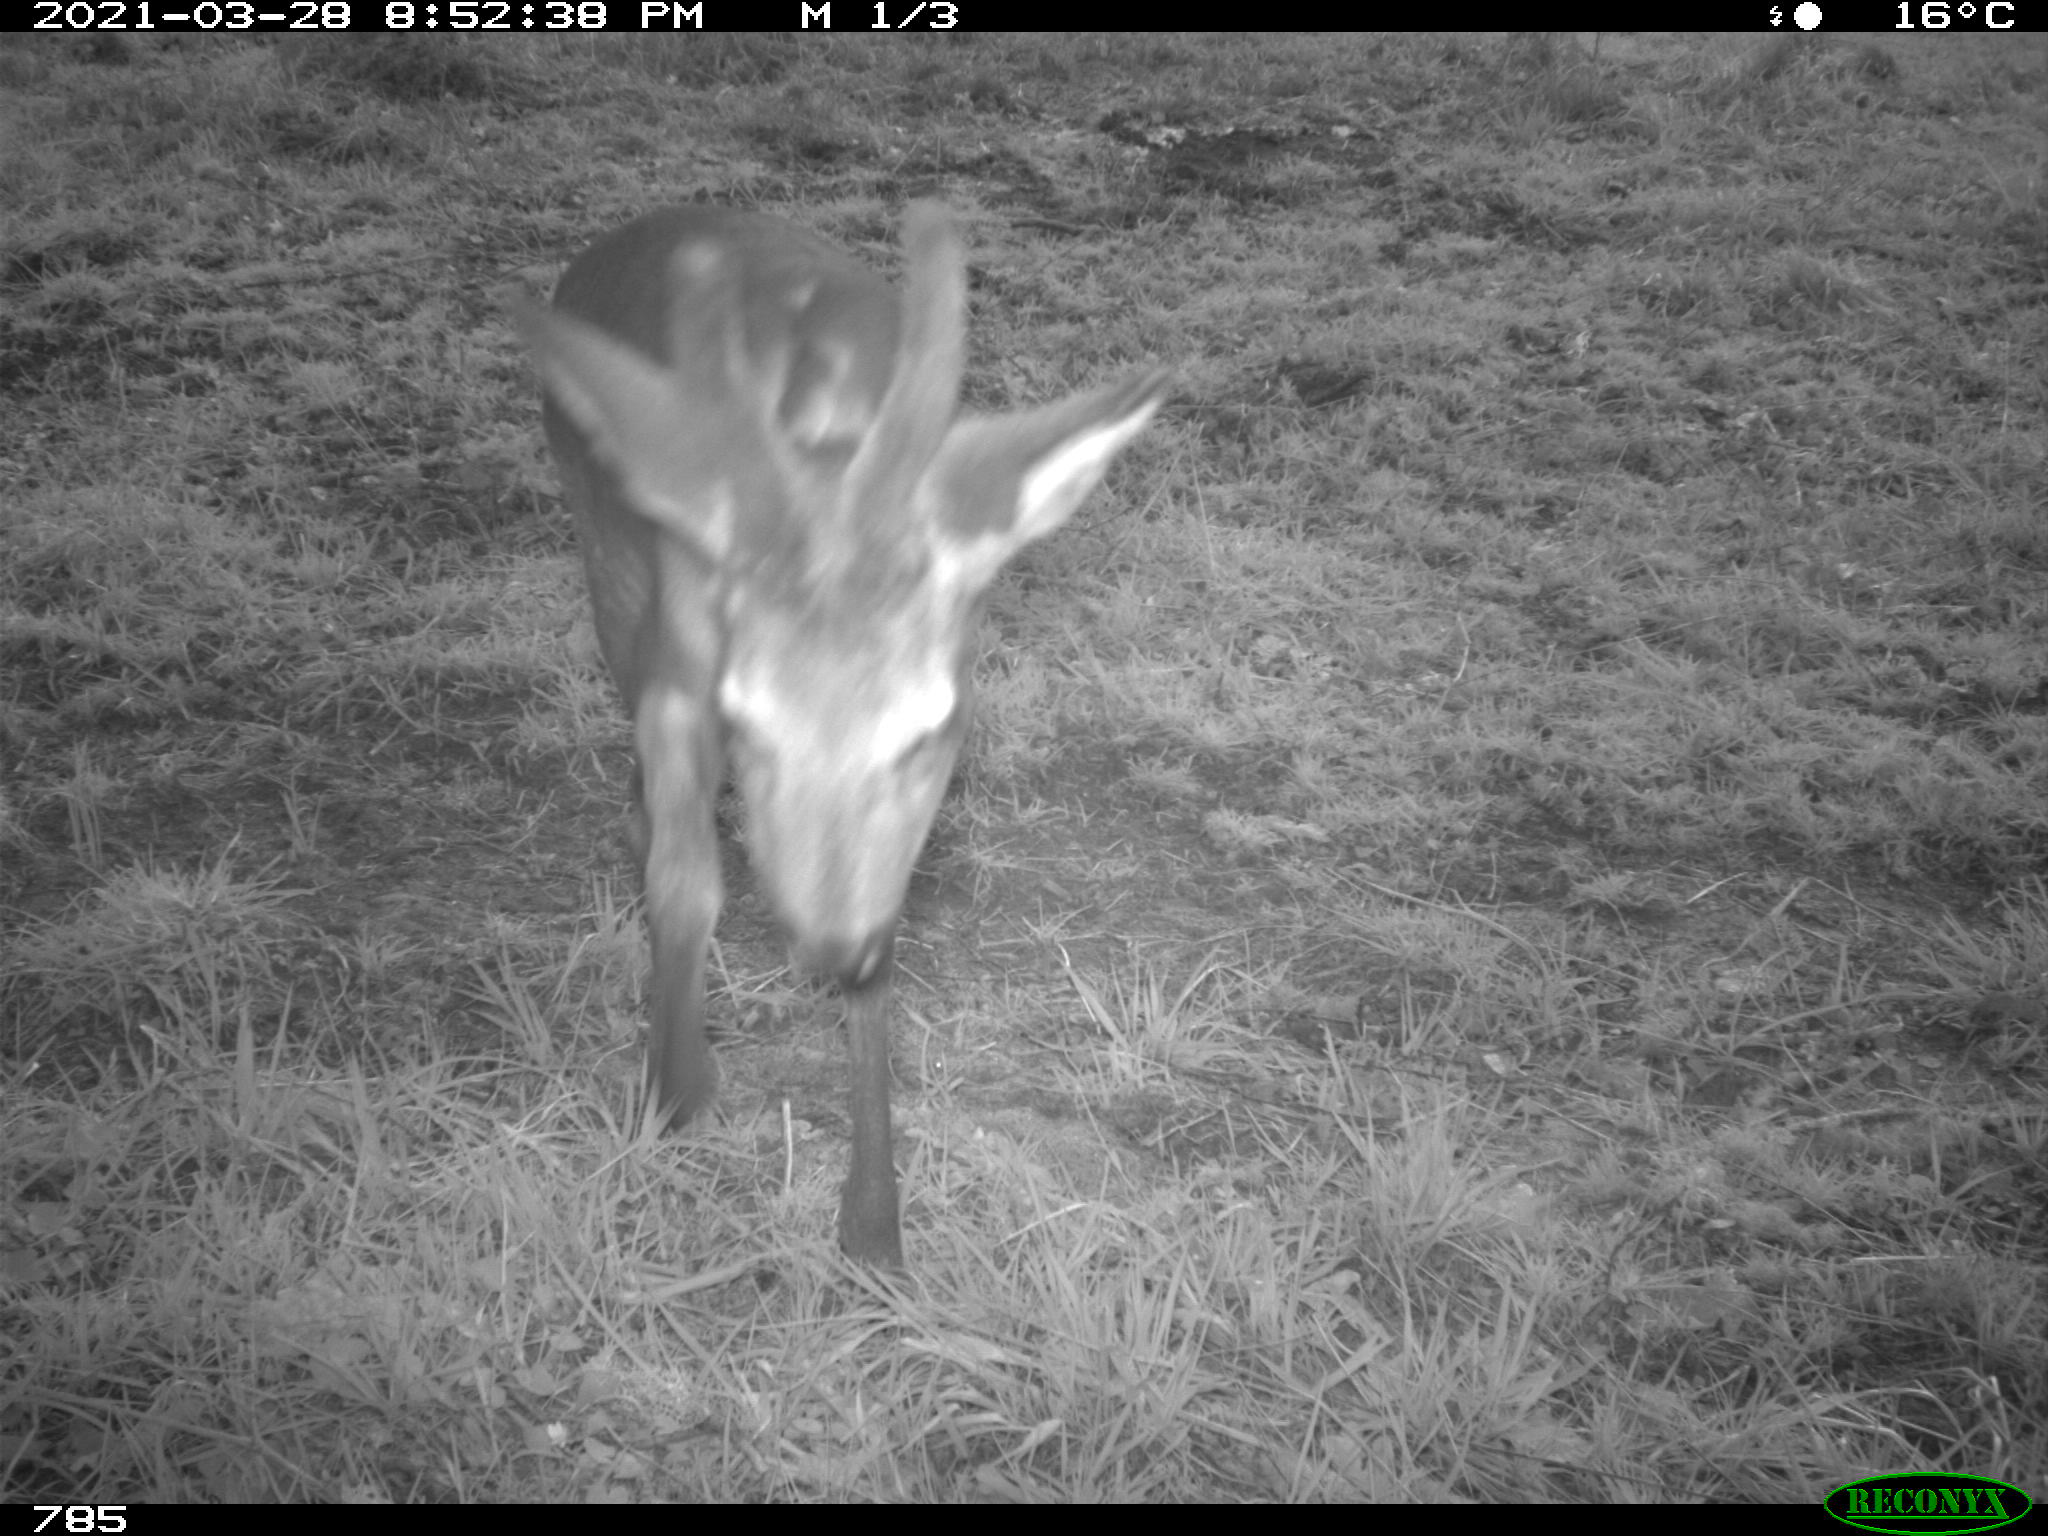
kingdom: Animalia
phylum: Chordata
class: Mammalia
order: Artiodactyla
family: Cervidae
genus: Capreolus
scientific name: Capreolus capreolus
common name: Western roe deer
